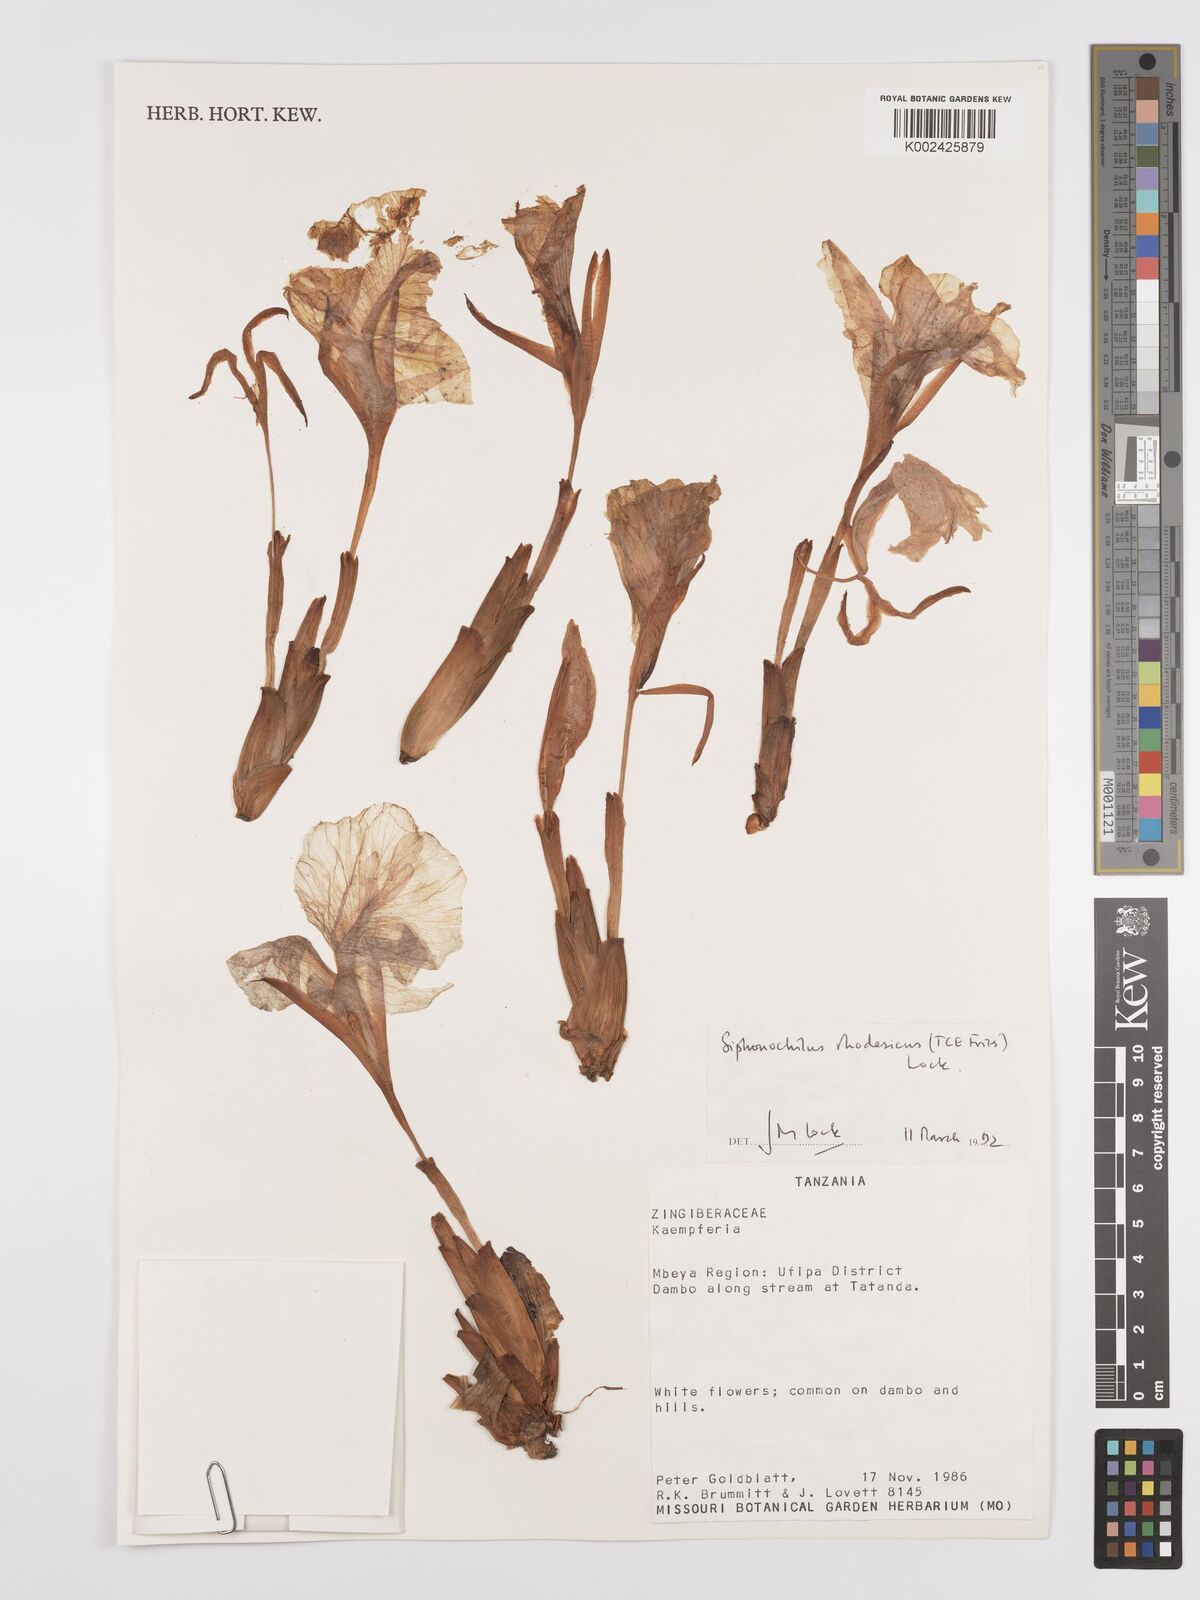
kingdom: Plantae
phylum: Tracheophyta
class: Liliopsida
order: Zingiberales
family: Zingiberaceae
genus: Siphonochilus
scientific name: Siphonochilus rhodesicus
